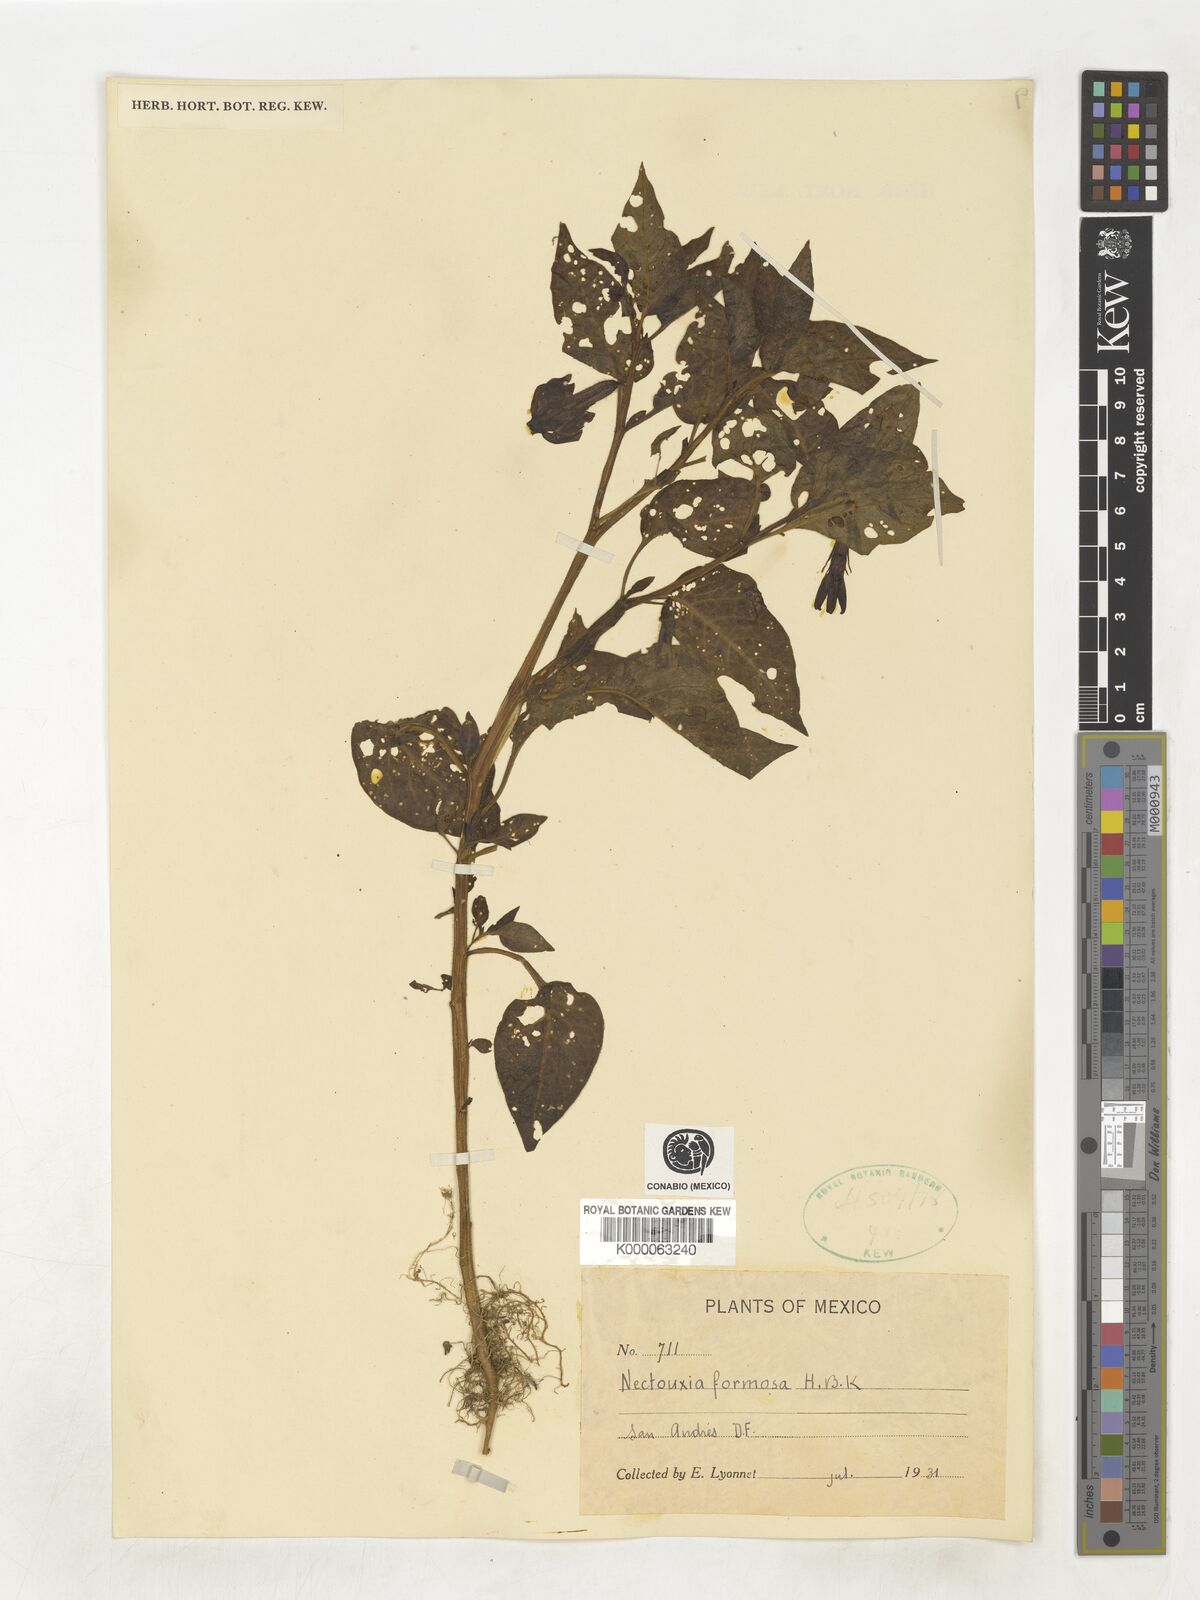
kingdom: Plantae
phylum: Tracheophyta
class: Magnoliopsida
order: Solanales
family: Solanaceae
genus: Nectouxia
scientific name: Nectouxia formosa
